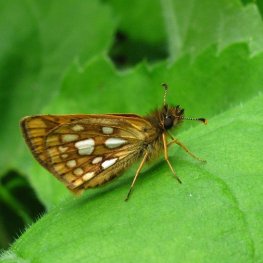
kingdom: Animalia
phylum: Arthropoda
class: Insecta
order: Lepidoptera
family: Hesperiidae
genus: Carterocephalus
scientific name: Carterocephalus palaemon
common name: Chequered Skipper
